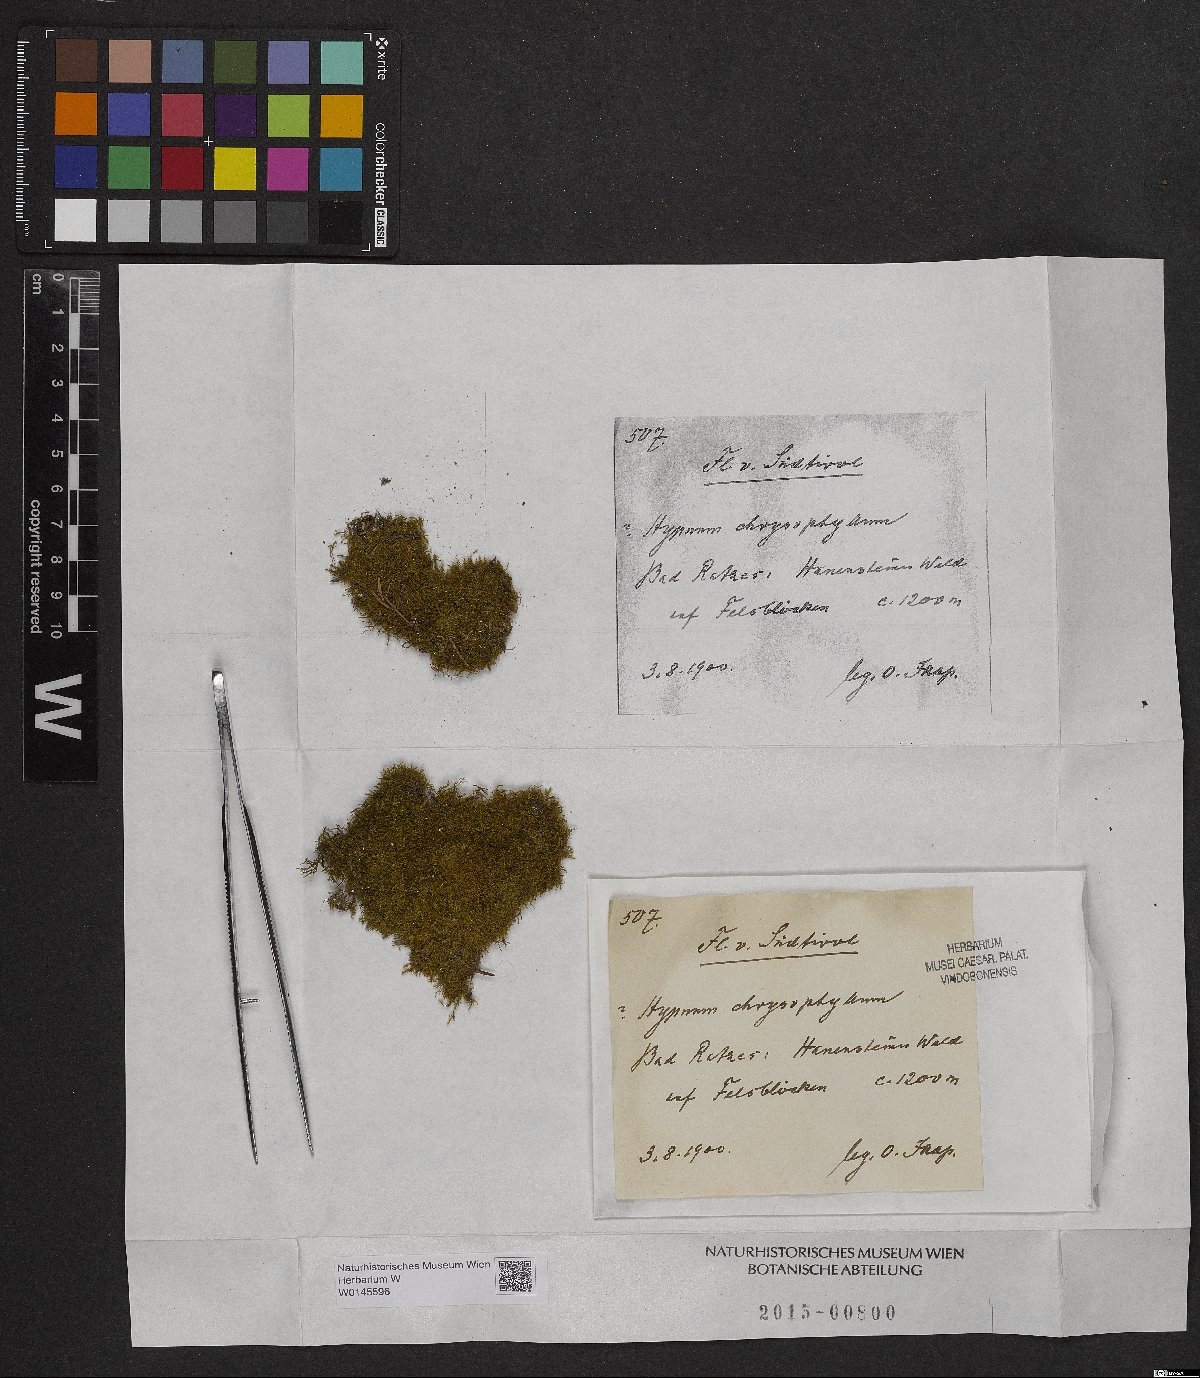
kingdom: Plantae
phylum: Bryophyta
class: Bryopsida
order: Hypnales
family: Amblystegiaceae
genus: Campylium
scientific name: Campylium chrysophyllum
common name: Goldenleaf campylium moss
